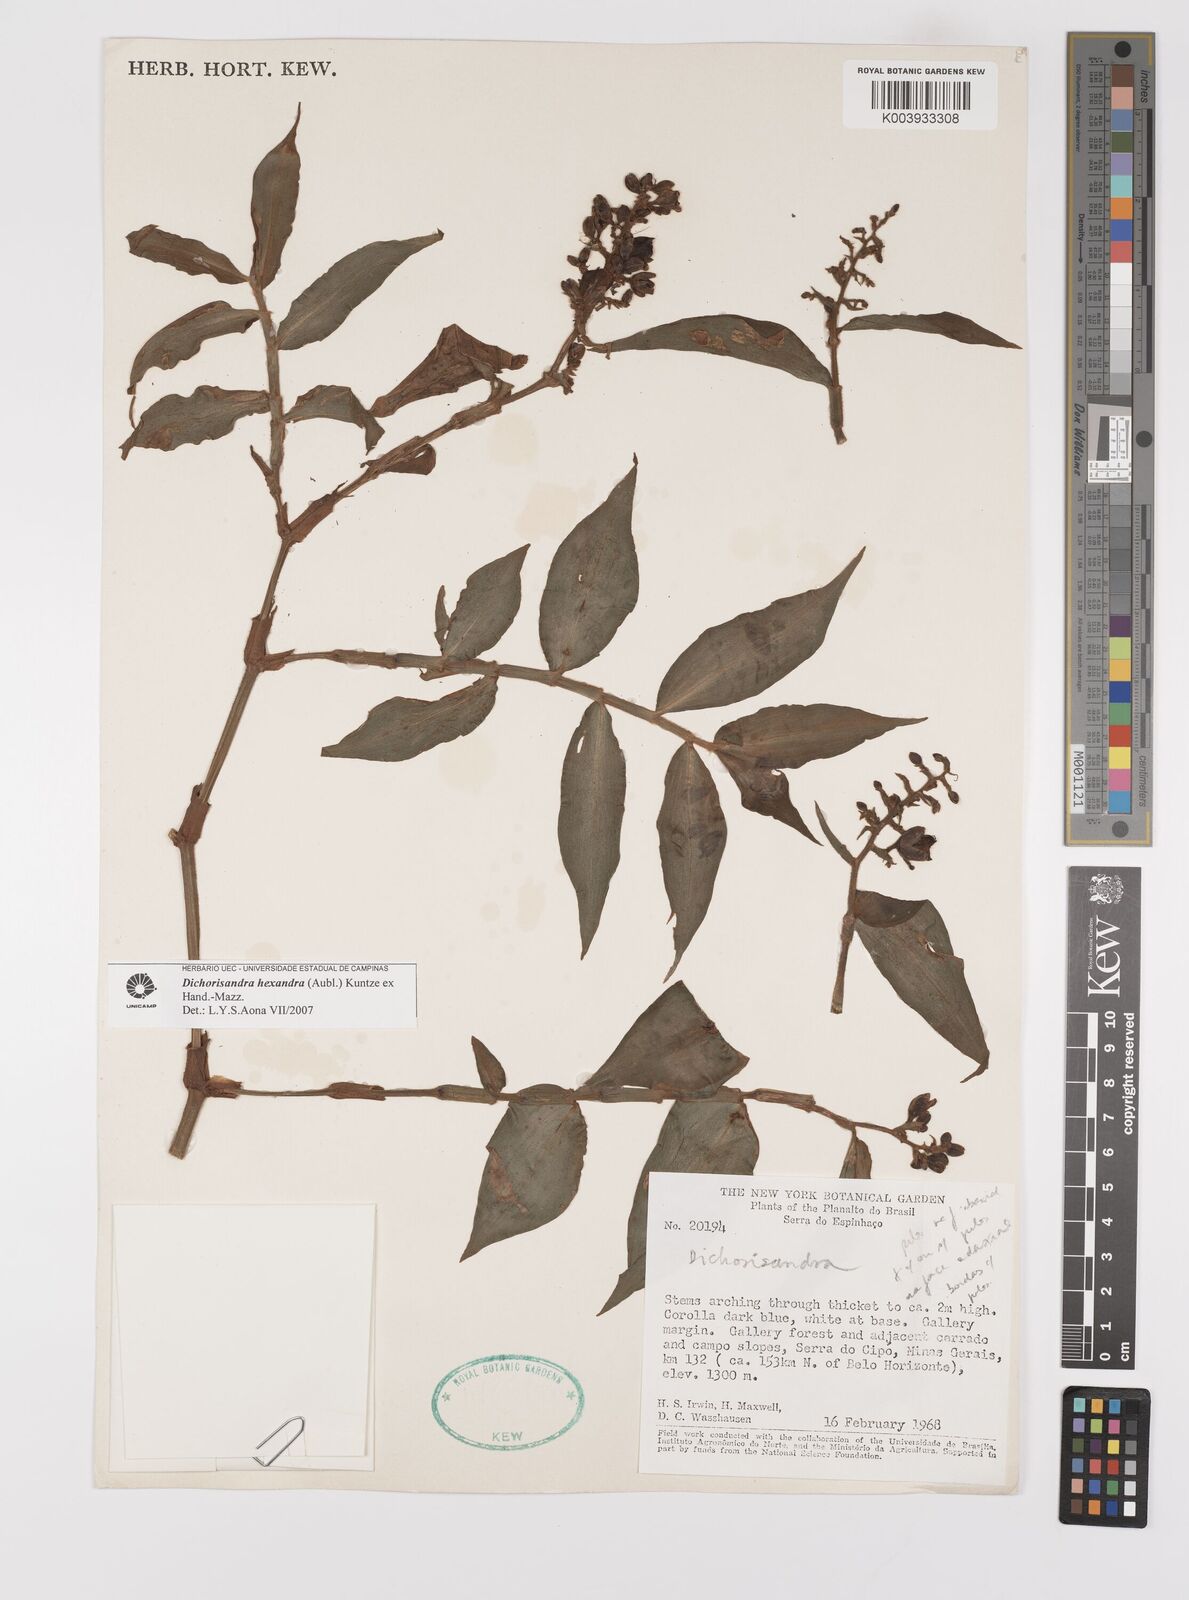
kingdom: Plantae
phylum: Tracheophyta
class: Liliopsida
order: Commelinales
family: Commelinaceae
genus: Dichorisandra
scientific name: Dichorisandra hexandra
